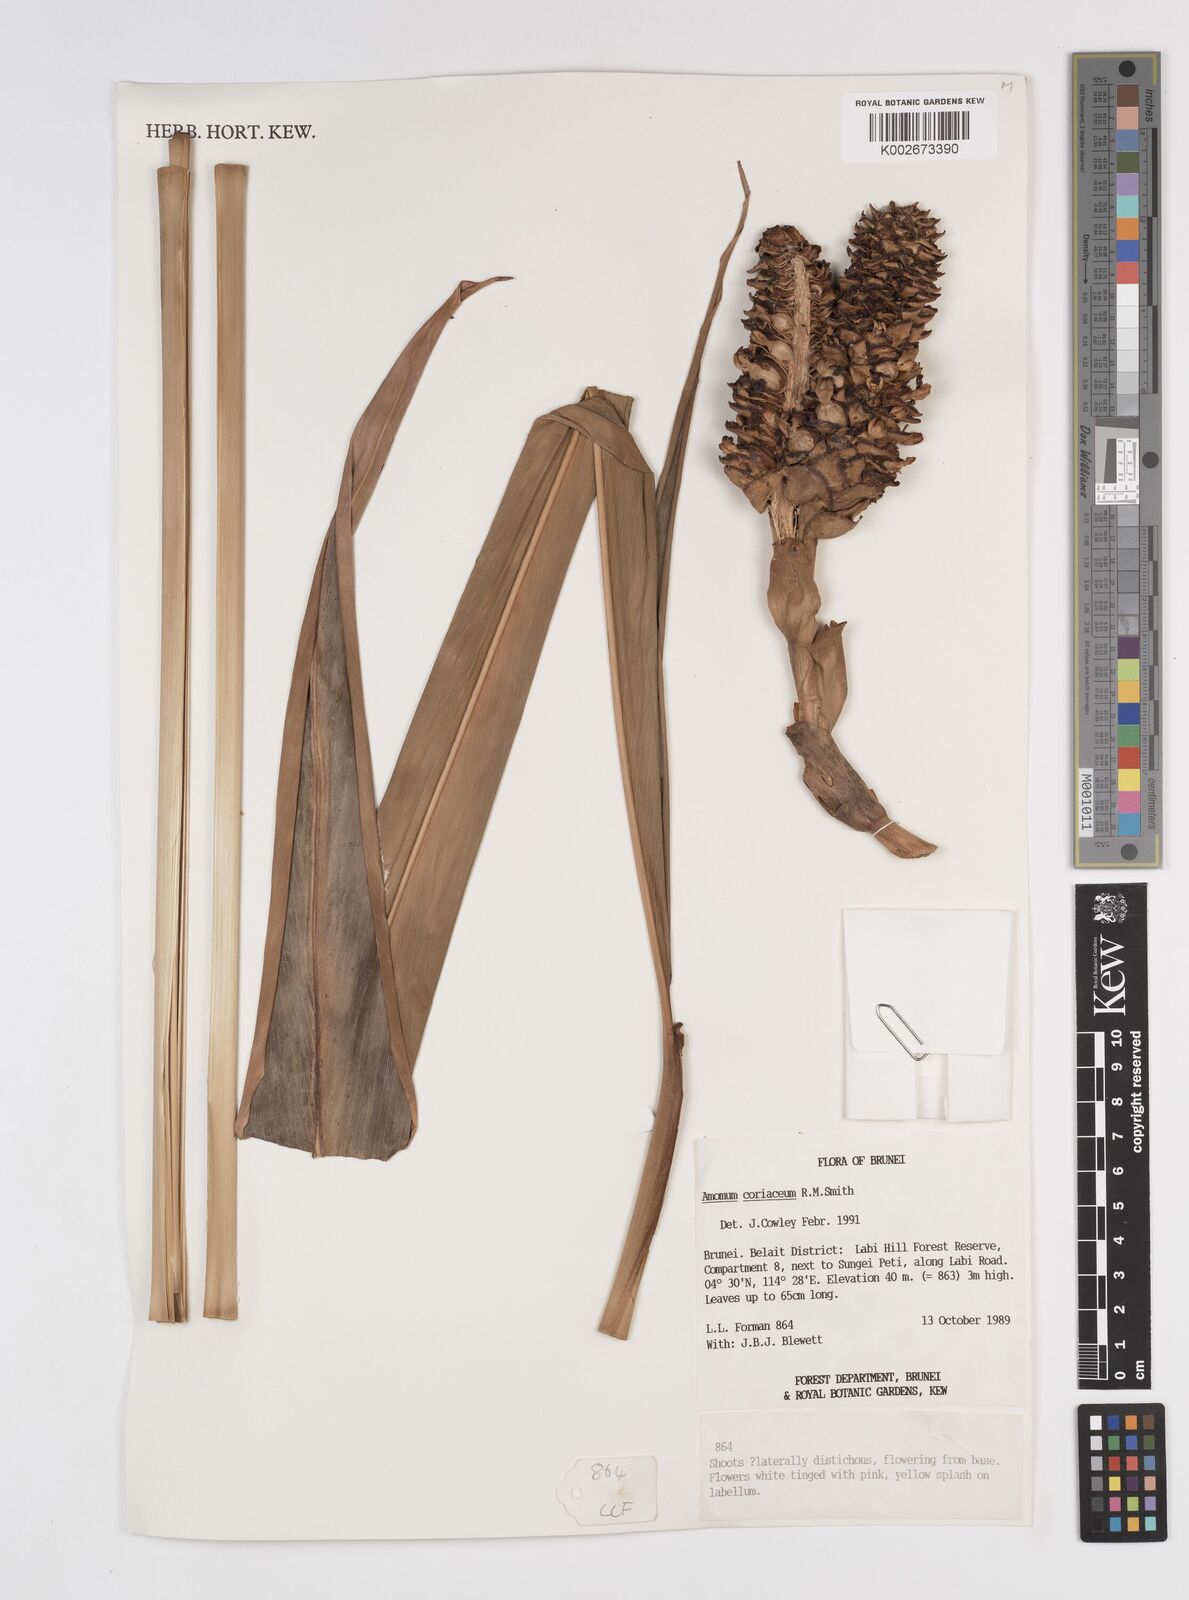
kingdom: Plantae
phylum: Tracheophyta
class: Liliopsida
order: Zingiberales
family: Zingiberaceae
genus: Conamomum
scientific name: Conamomum cylindrostachys
